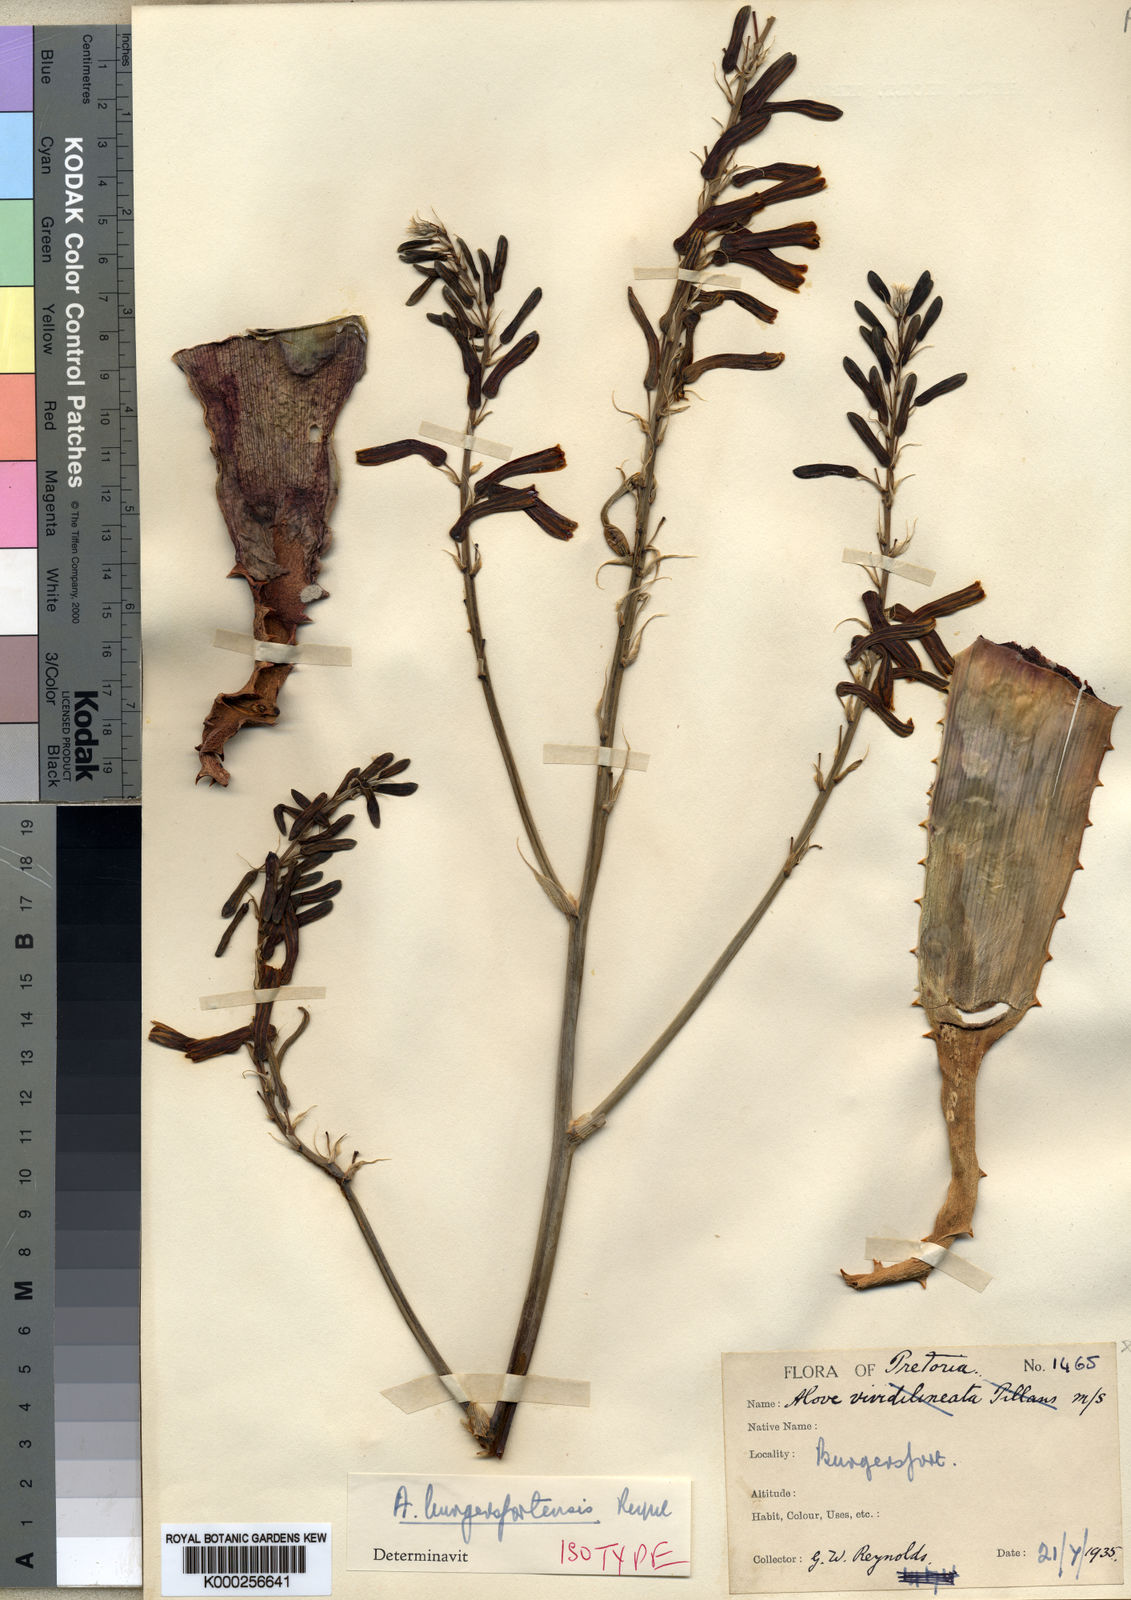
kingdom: Plantae
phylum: Tracheophyta
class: Liliopsida
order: Asparagales
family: Asphodelaceae
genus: Aloe
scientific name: Aloe burgersfortensis
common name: Burgersfort aloe
